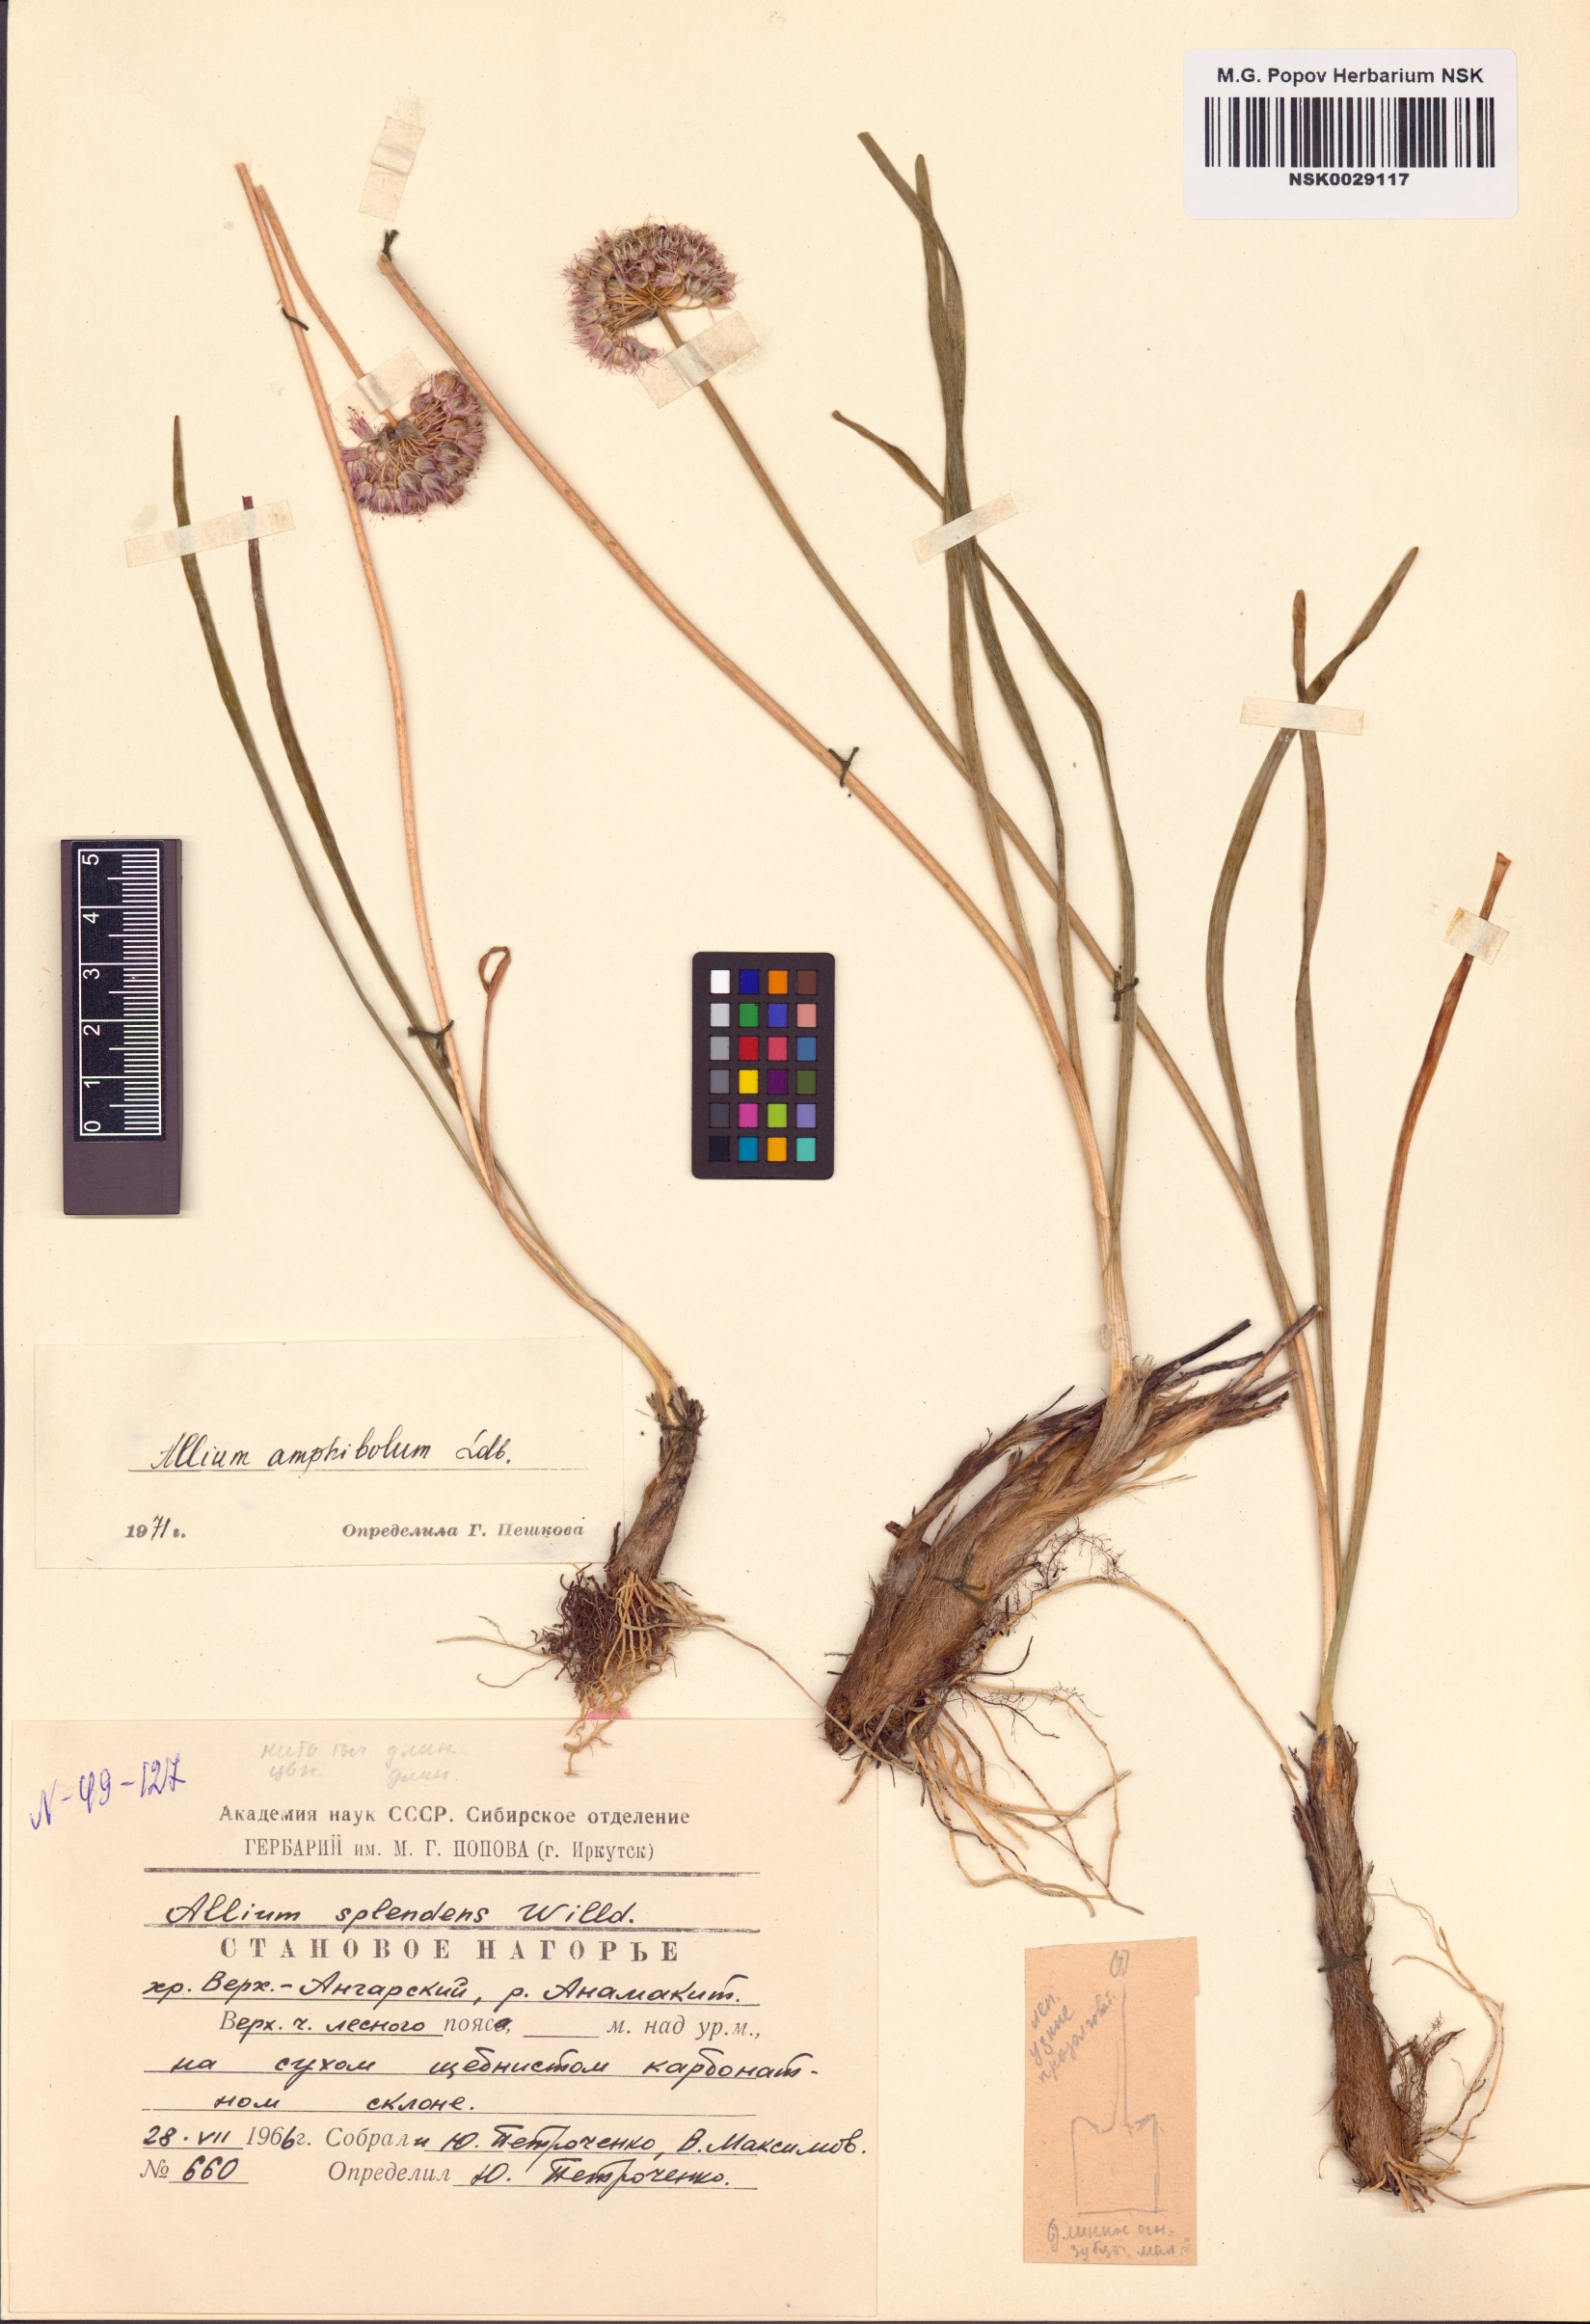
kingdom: Plantae
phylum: Tracheophyta
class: Liliopsida
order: Asparagales
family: Amaryllidaceae
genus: Allium
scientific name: Allium amphibolum
